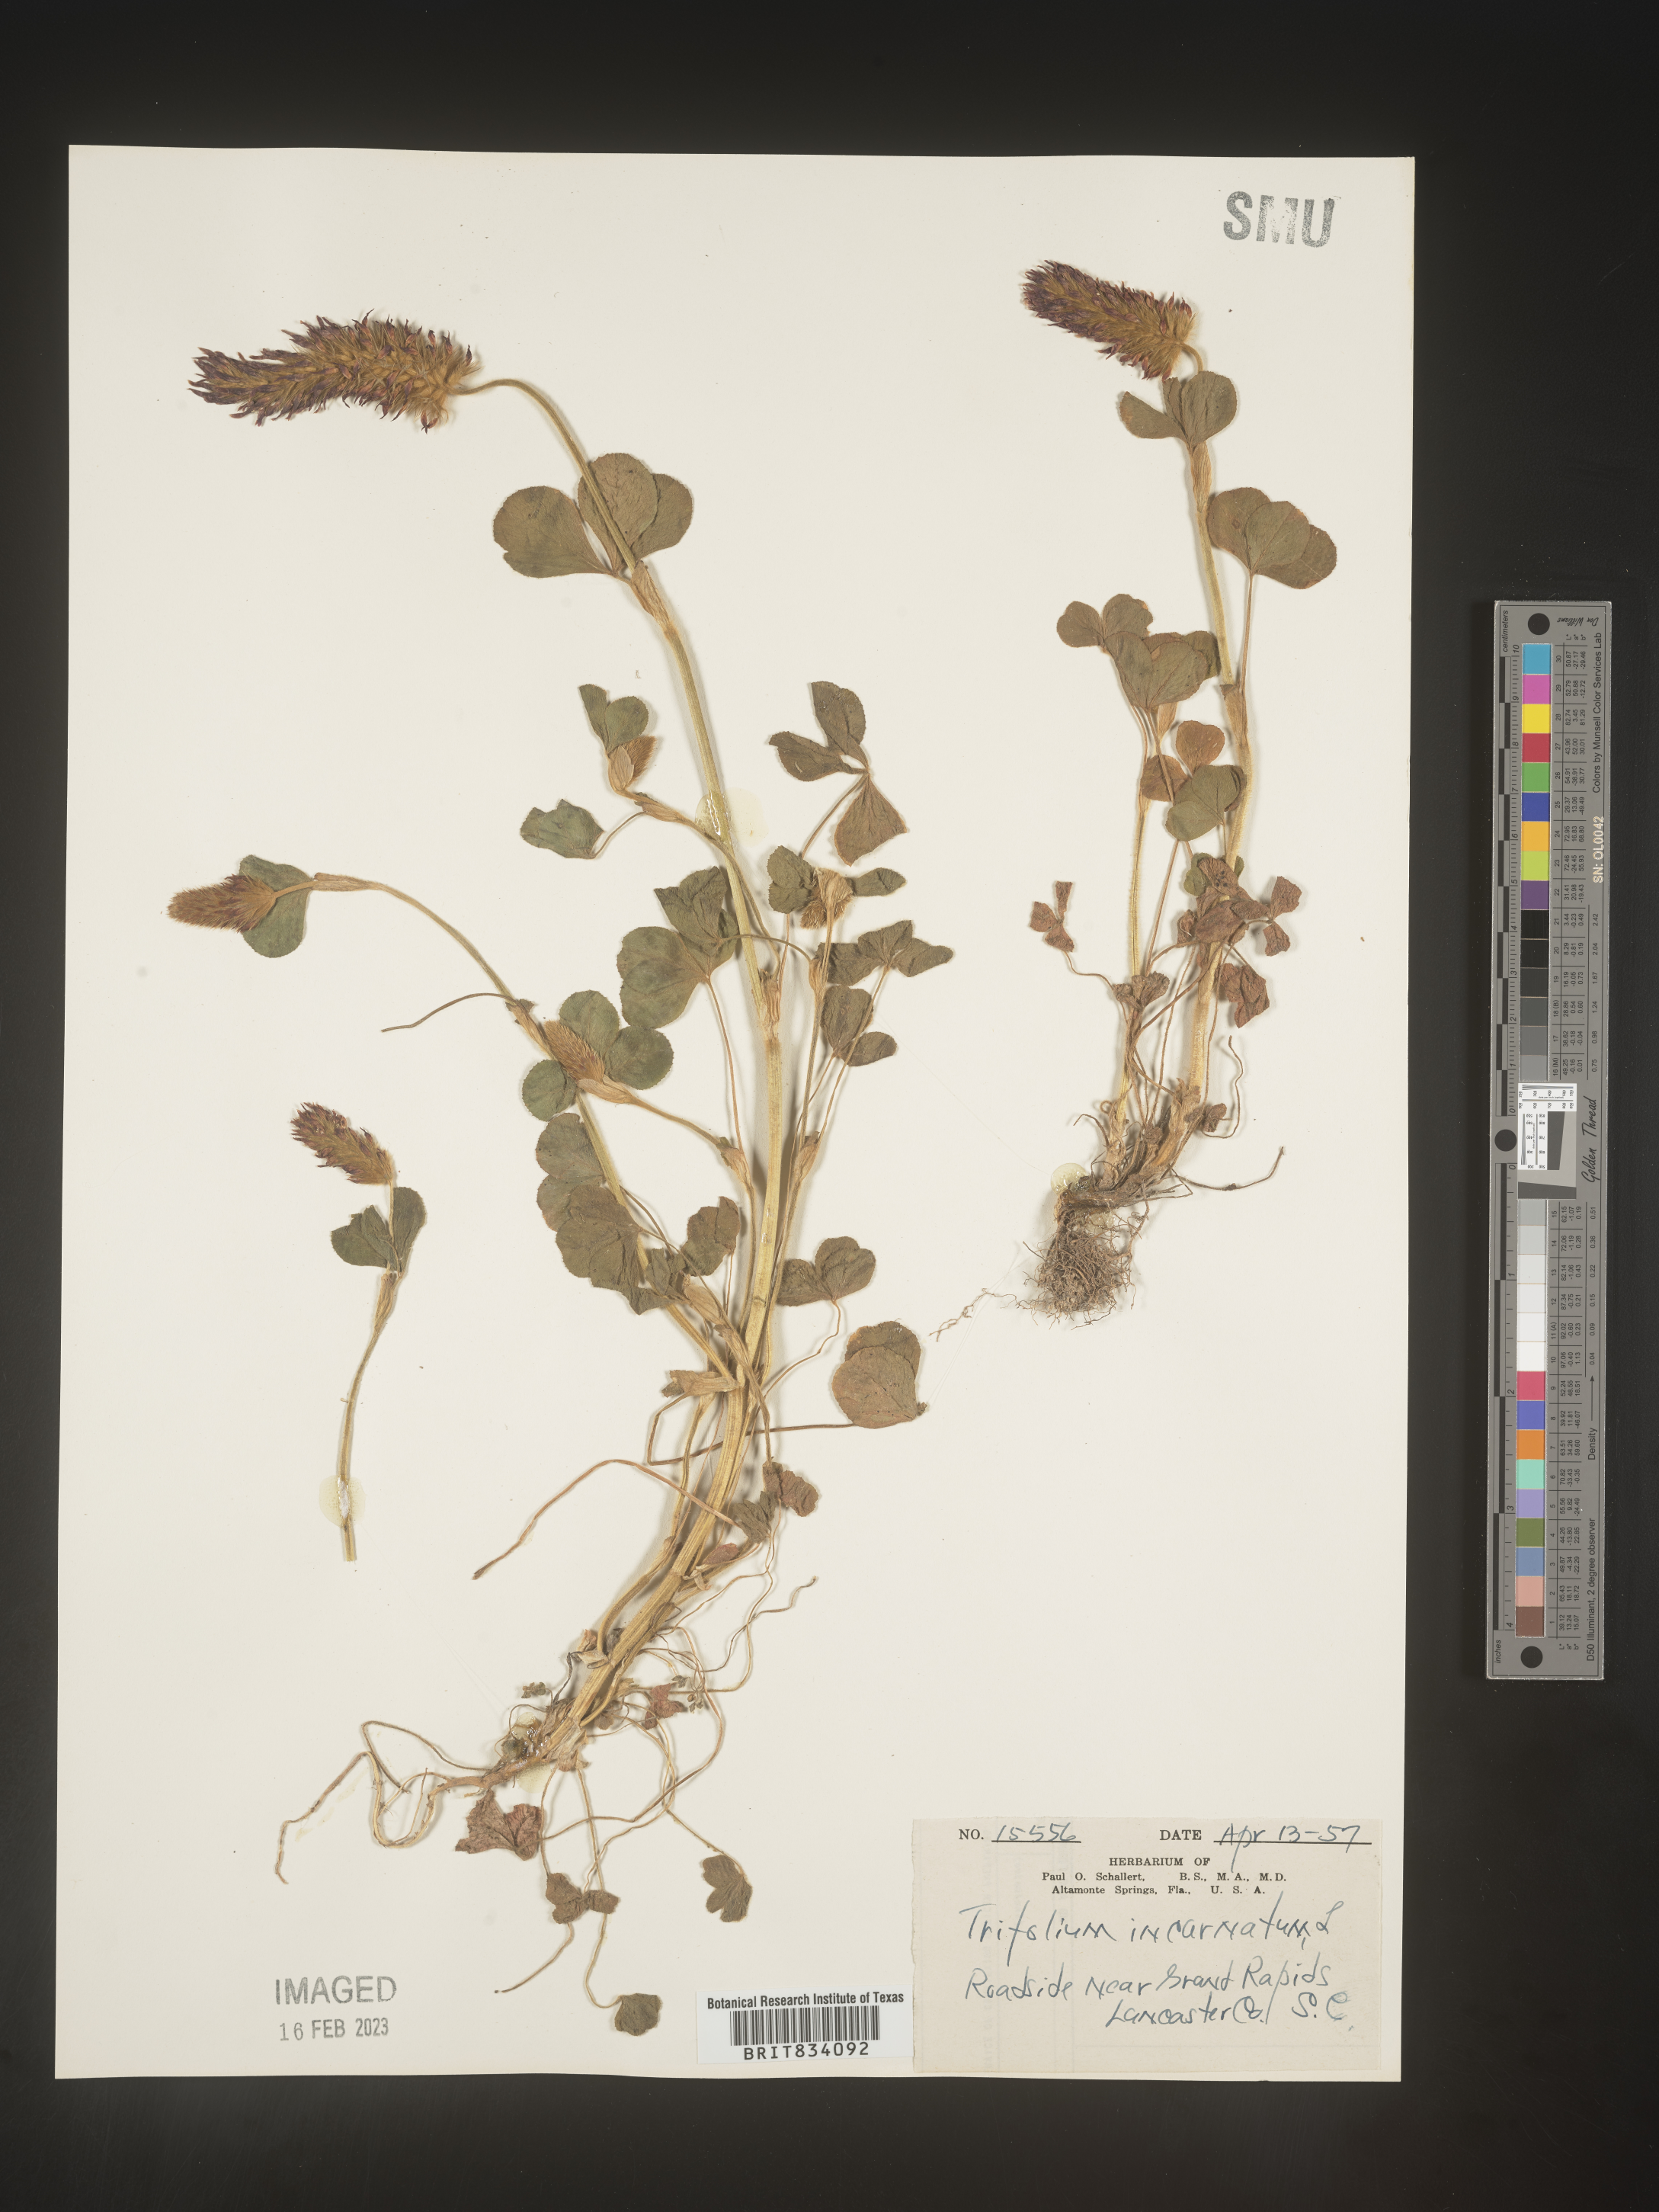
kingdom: Plantae
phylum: Tracheophyta
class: Magnoliopsida
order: Fabales
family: Fabaceae
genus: Trifolium
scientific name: Trifolium incarnatum
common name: Crimson clover
